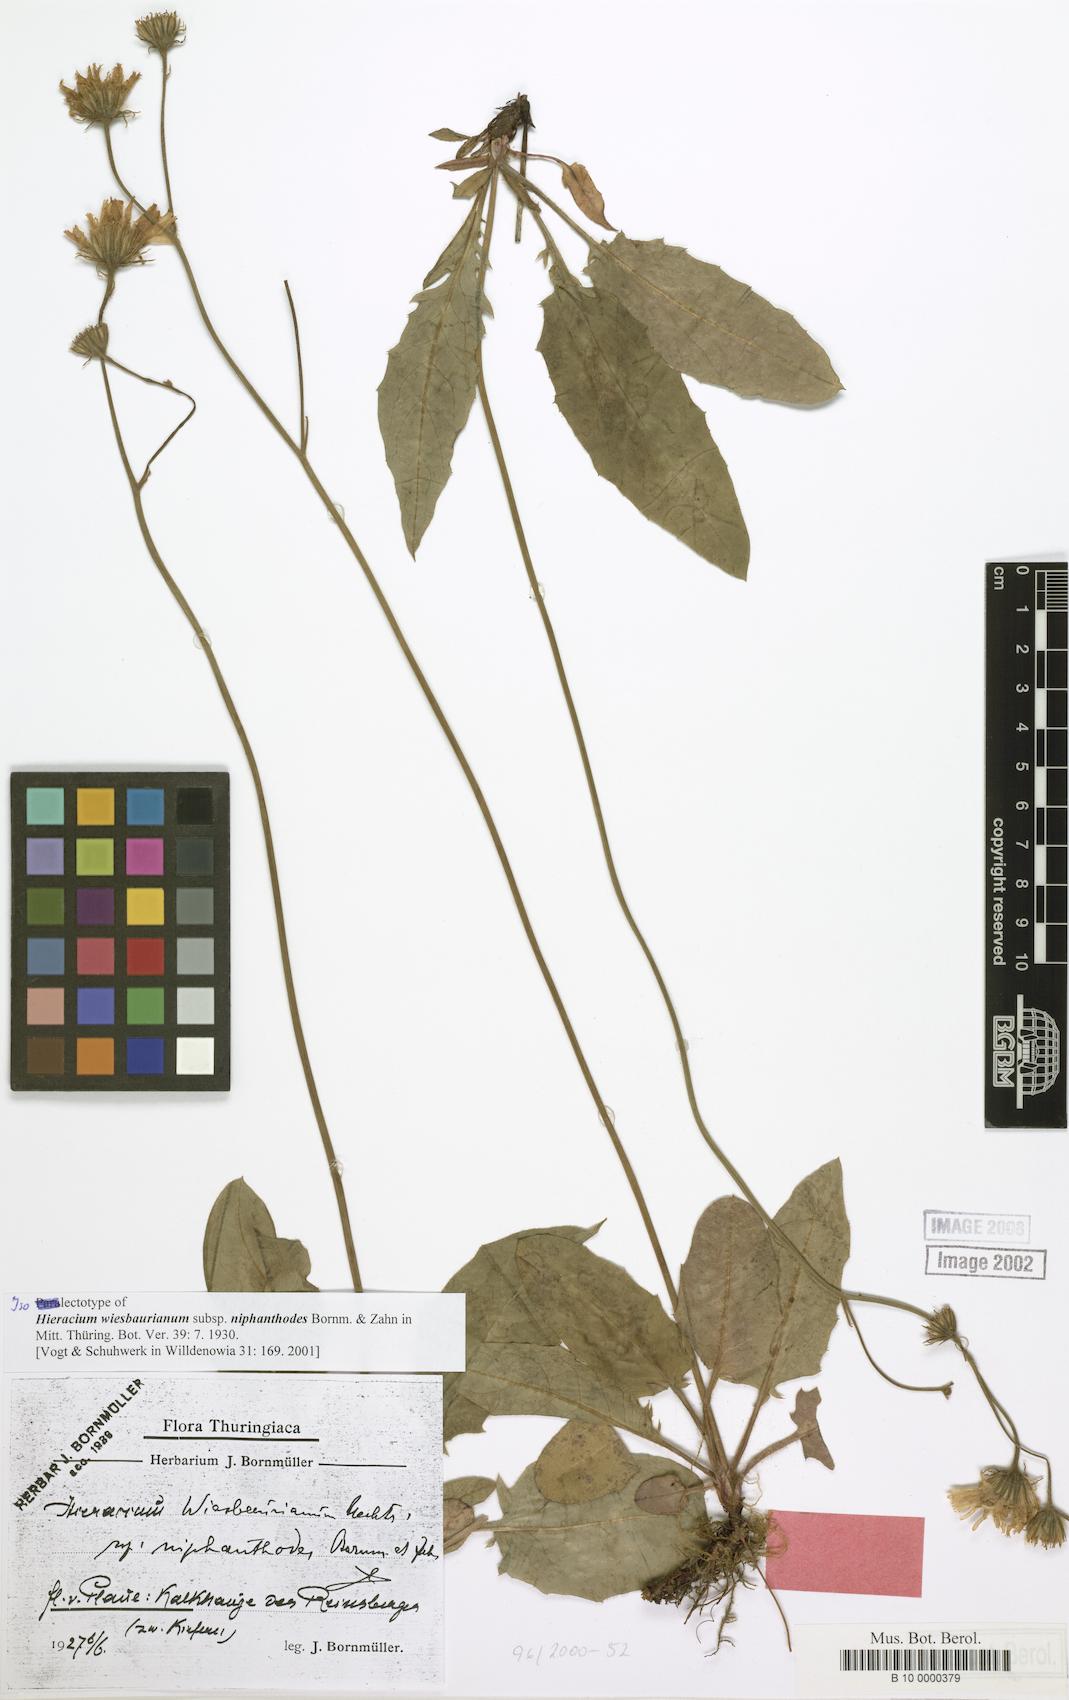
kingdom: Plantae
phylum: Tracheophyta
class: Magnoliopsida
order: Asterales
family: Asteraceae
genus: Hieracium
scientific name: Hieracium hypochoeroides
